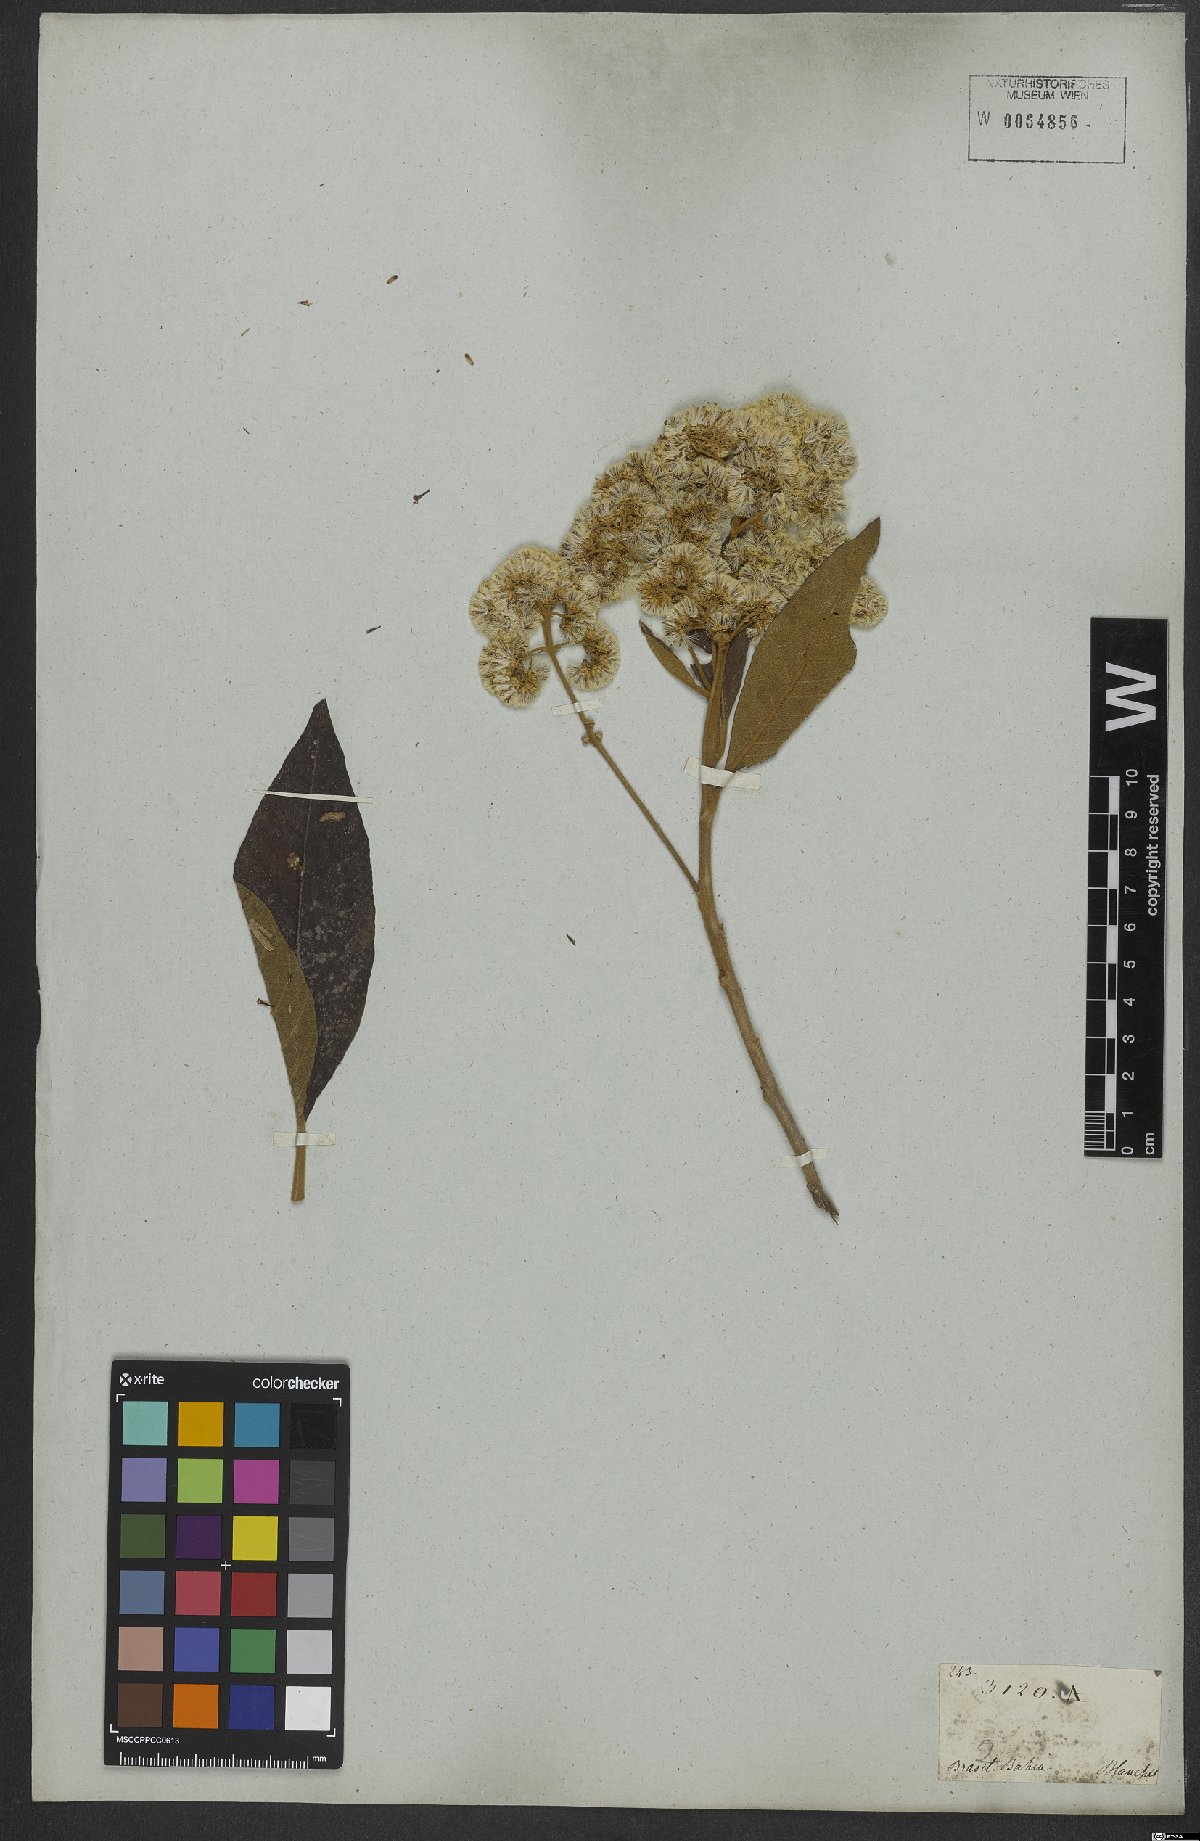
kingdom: Plantae
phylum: Tracheophyta
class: Magnoliopsida
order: Asterales
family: Asteraceae
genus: Vernonanthura
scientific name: Vernonanthura petiolaris
